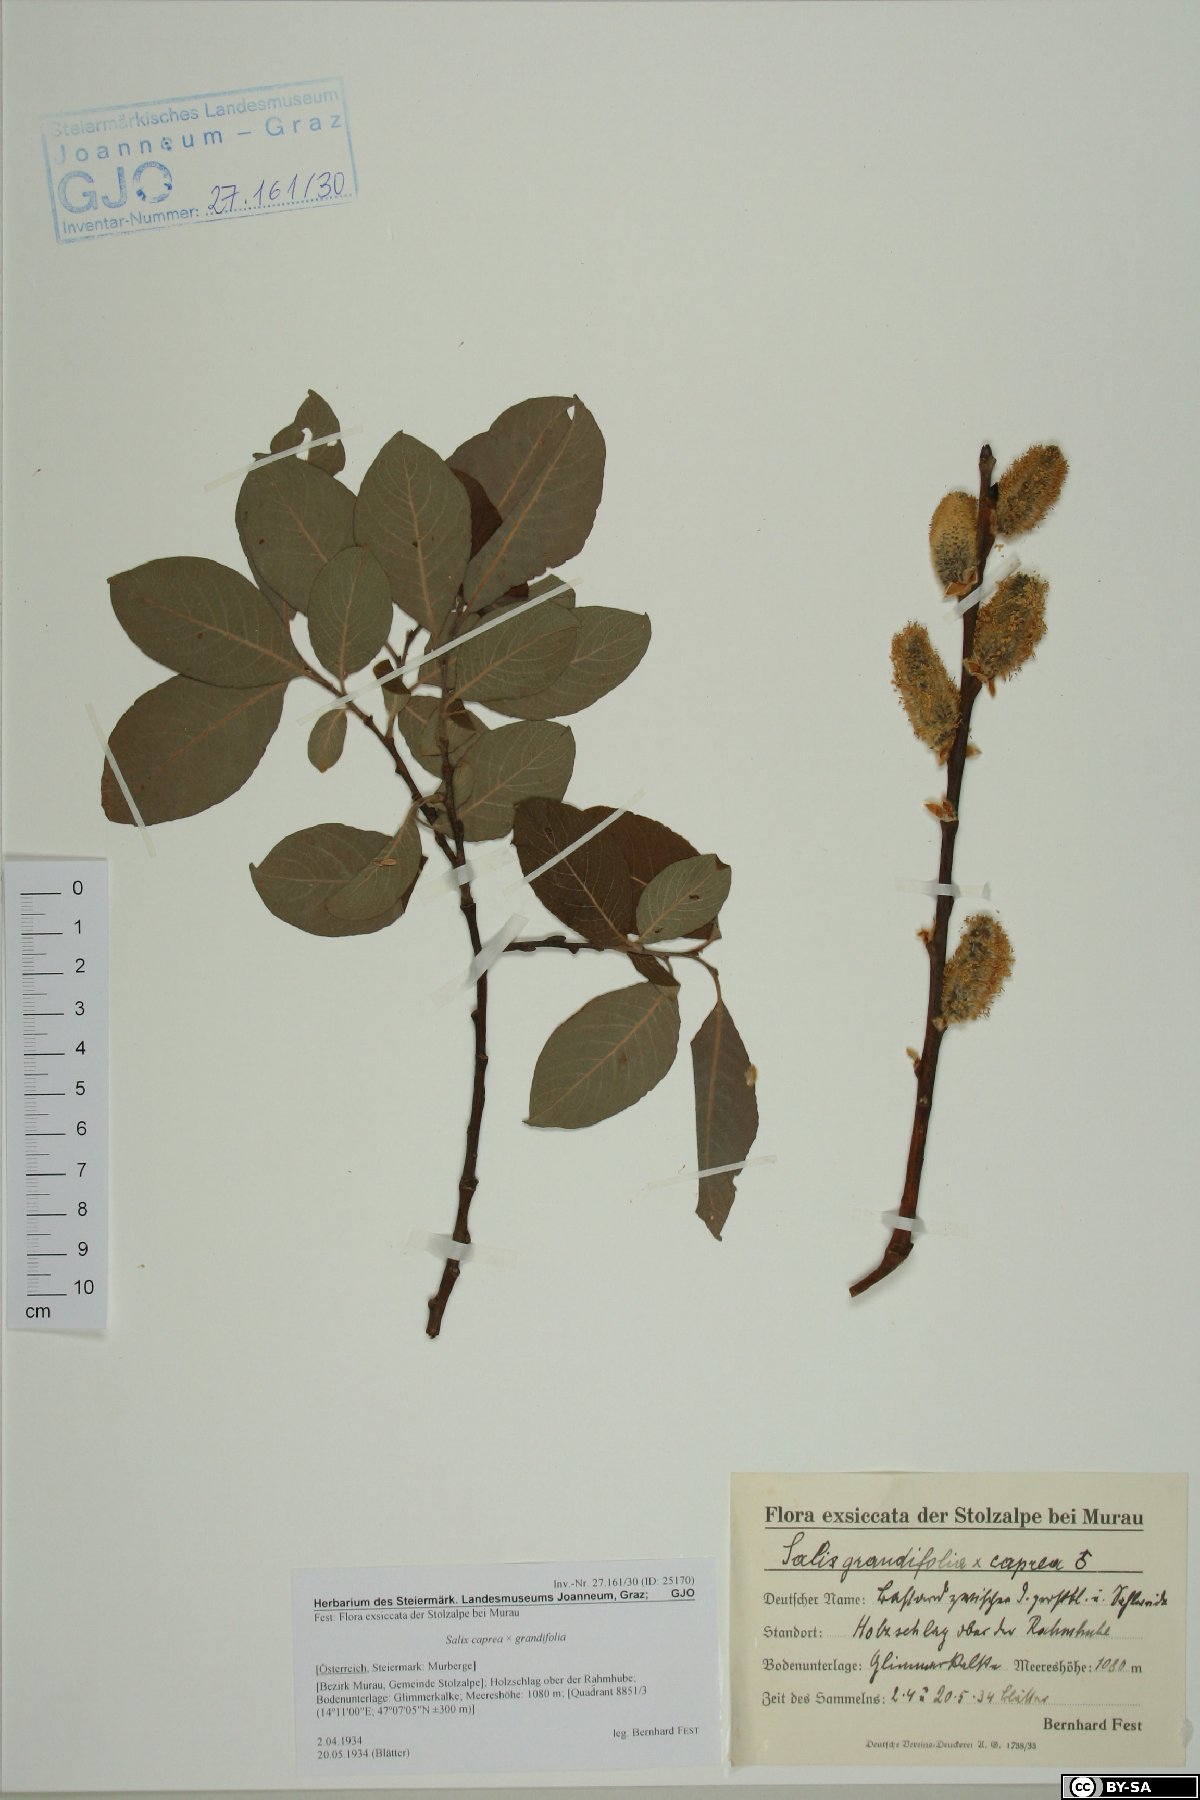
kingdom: Plantae
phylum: Tracheophyta
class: Magnoliopsida
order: Malpighiales
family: Salicaceae
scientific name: Salicaceae
